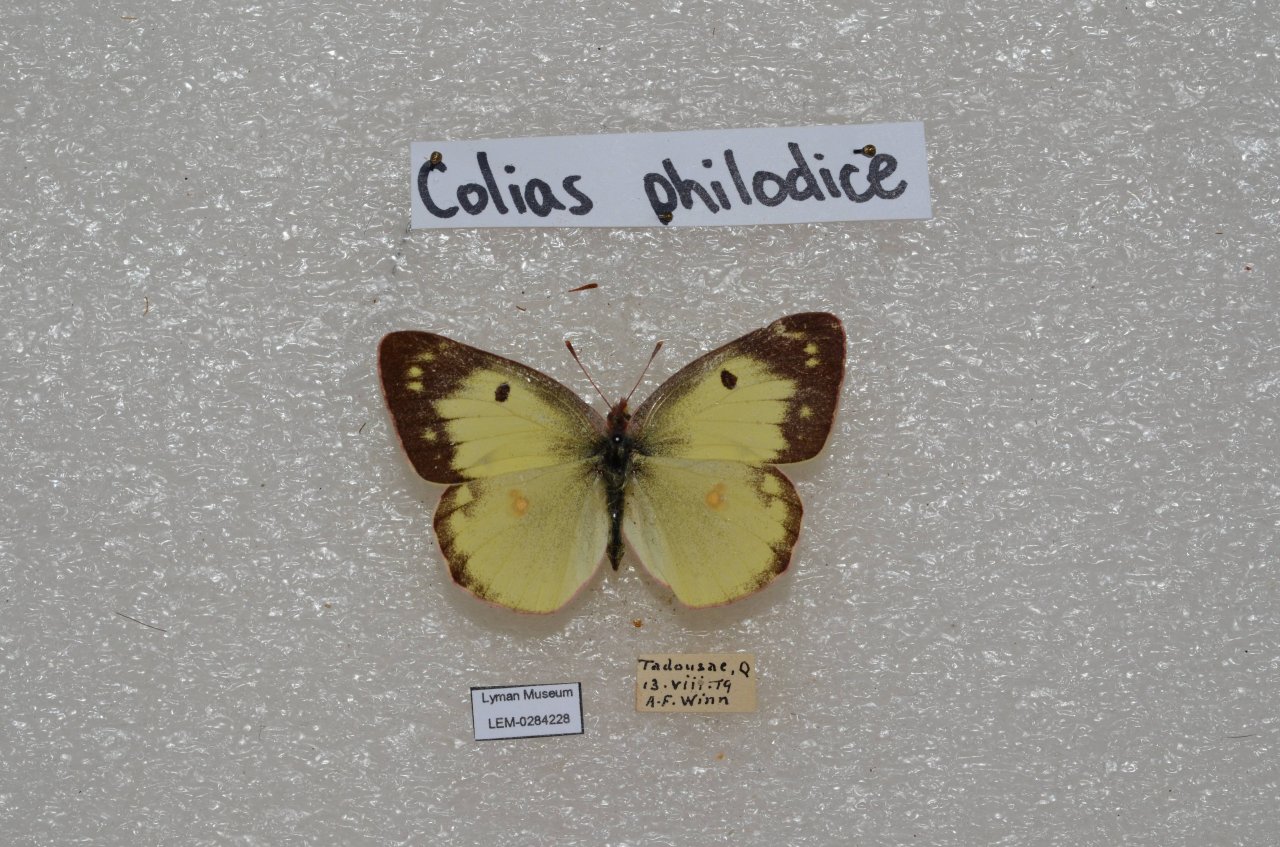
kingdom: Animalia
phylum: Arthropoda
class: Insecta
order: Lepidoptera
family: Pieridae
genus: Colias
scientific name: Colias philodice
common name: Clouded Sulphur
